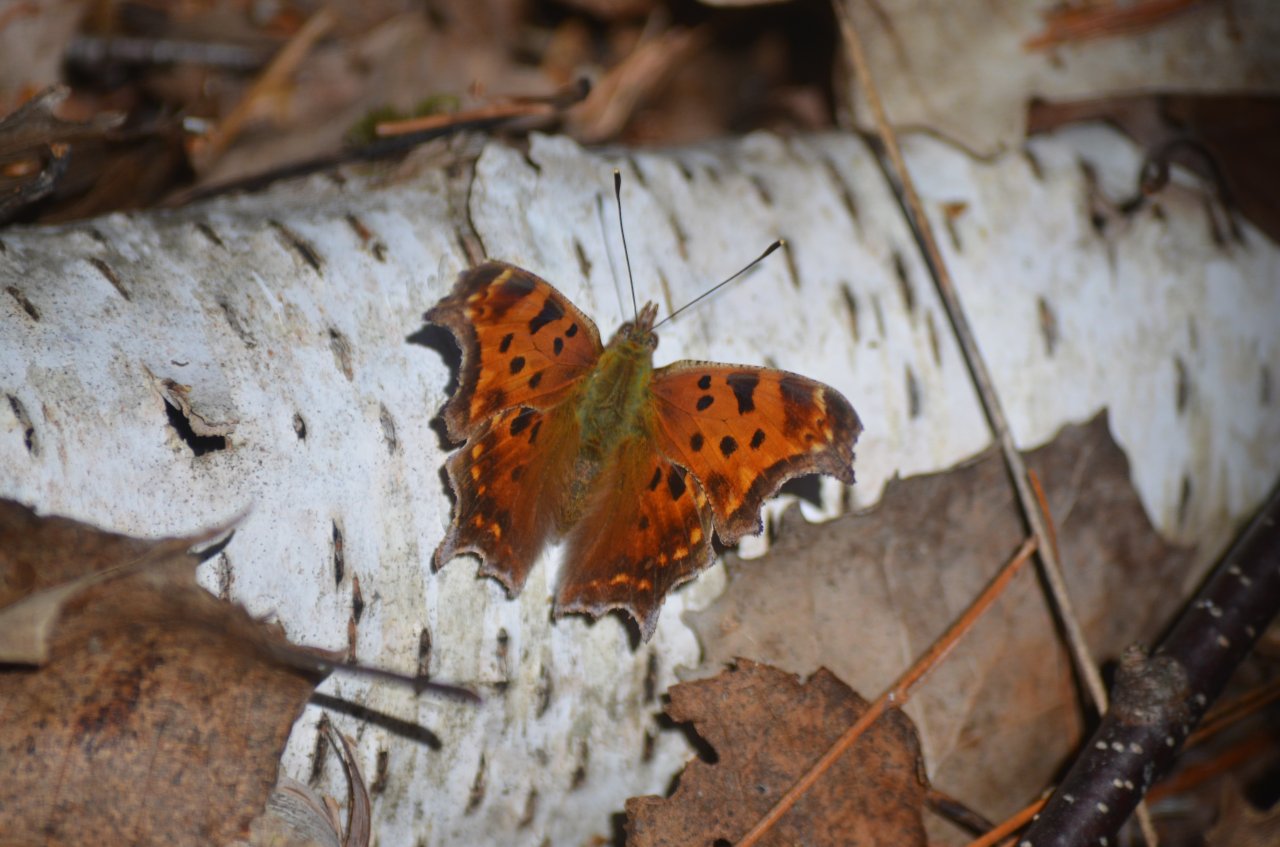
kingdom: Animalia
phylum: Arthropoda
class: Insecta
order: Lepidoptera
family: Nymphalidae
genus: Polygonia
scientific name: Polygonia comma
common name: Eastern Comma
